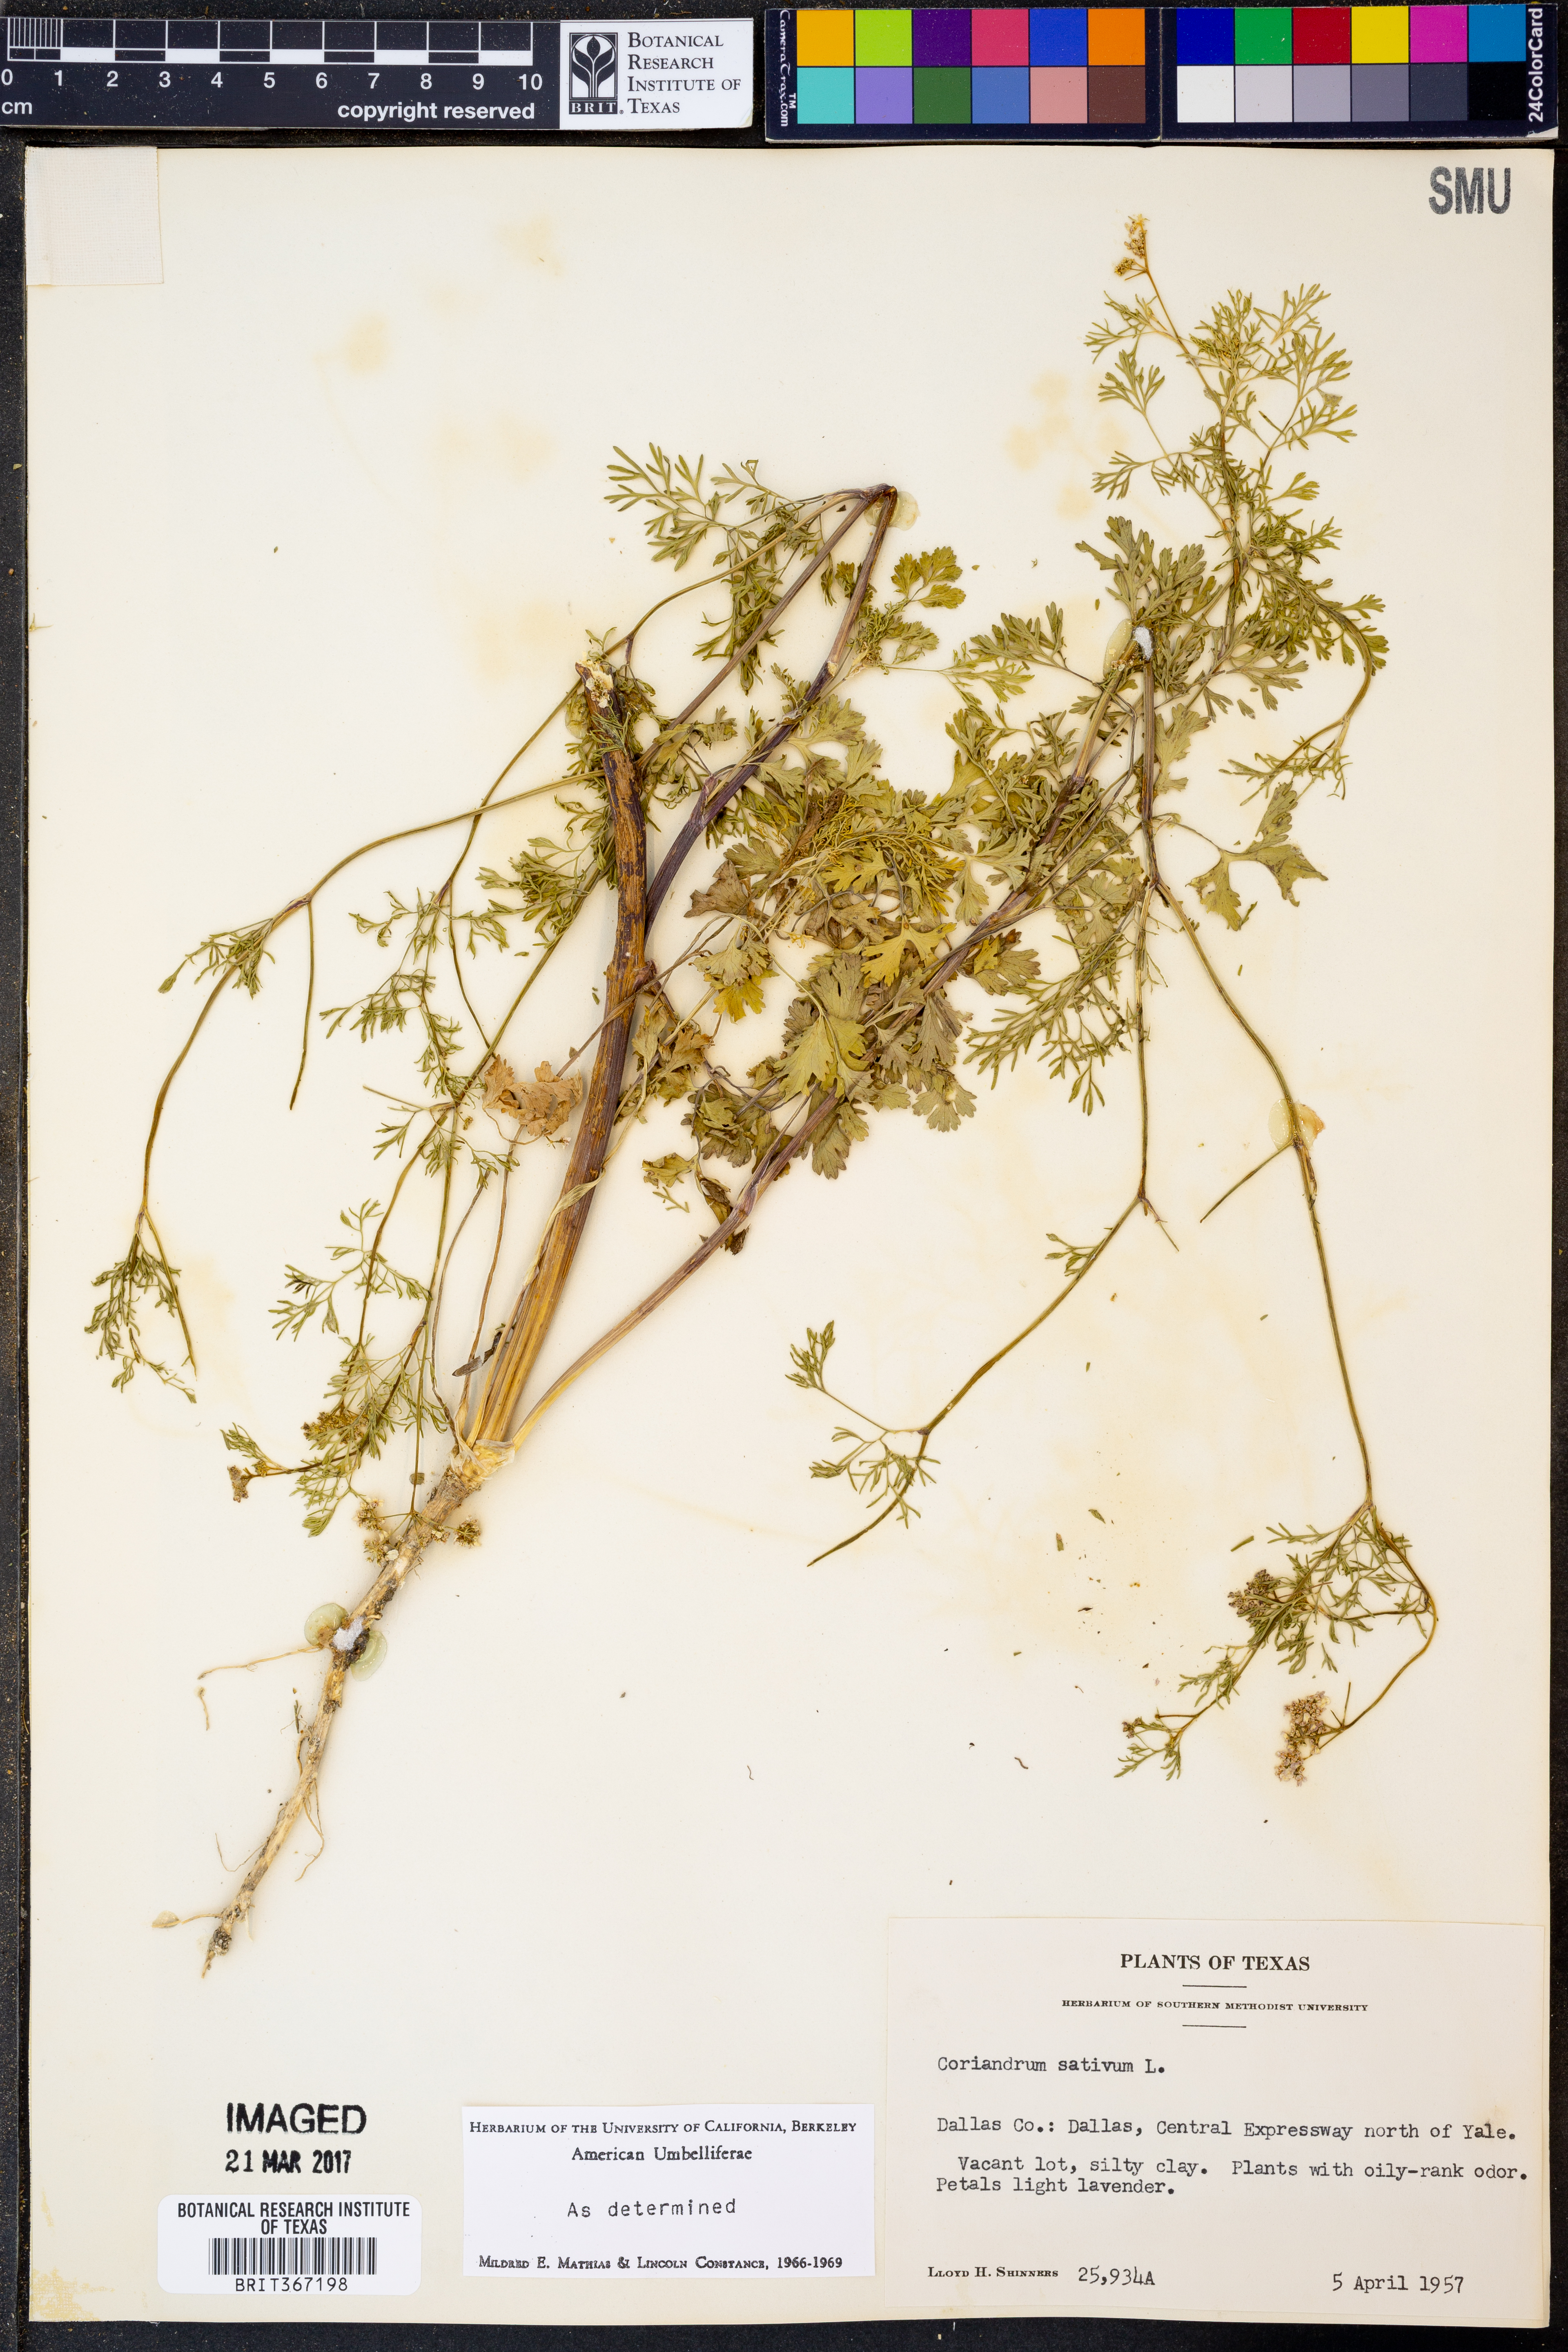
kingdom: Plantae
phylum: Tracheophyta
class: Magnoliopsida
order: Apiales
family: Apiaceae
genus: Coriandrum
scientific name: Coriandrum sativum
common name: Coriander
